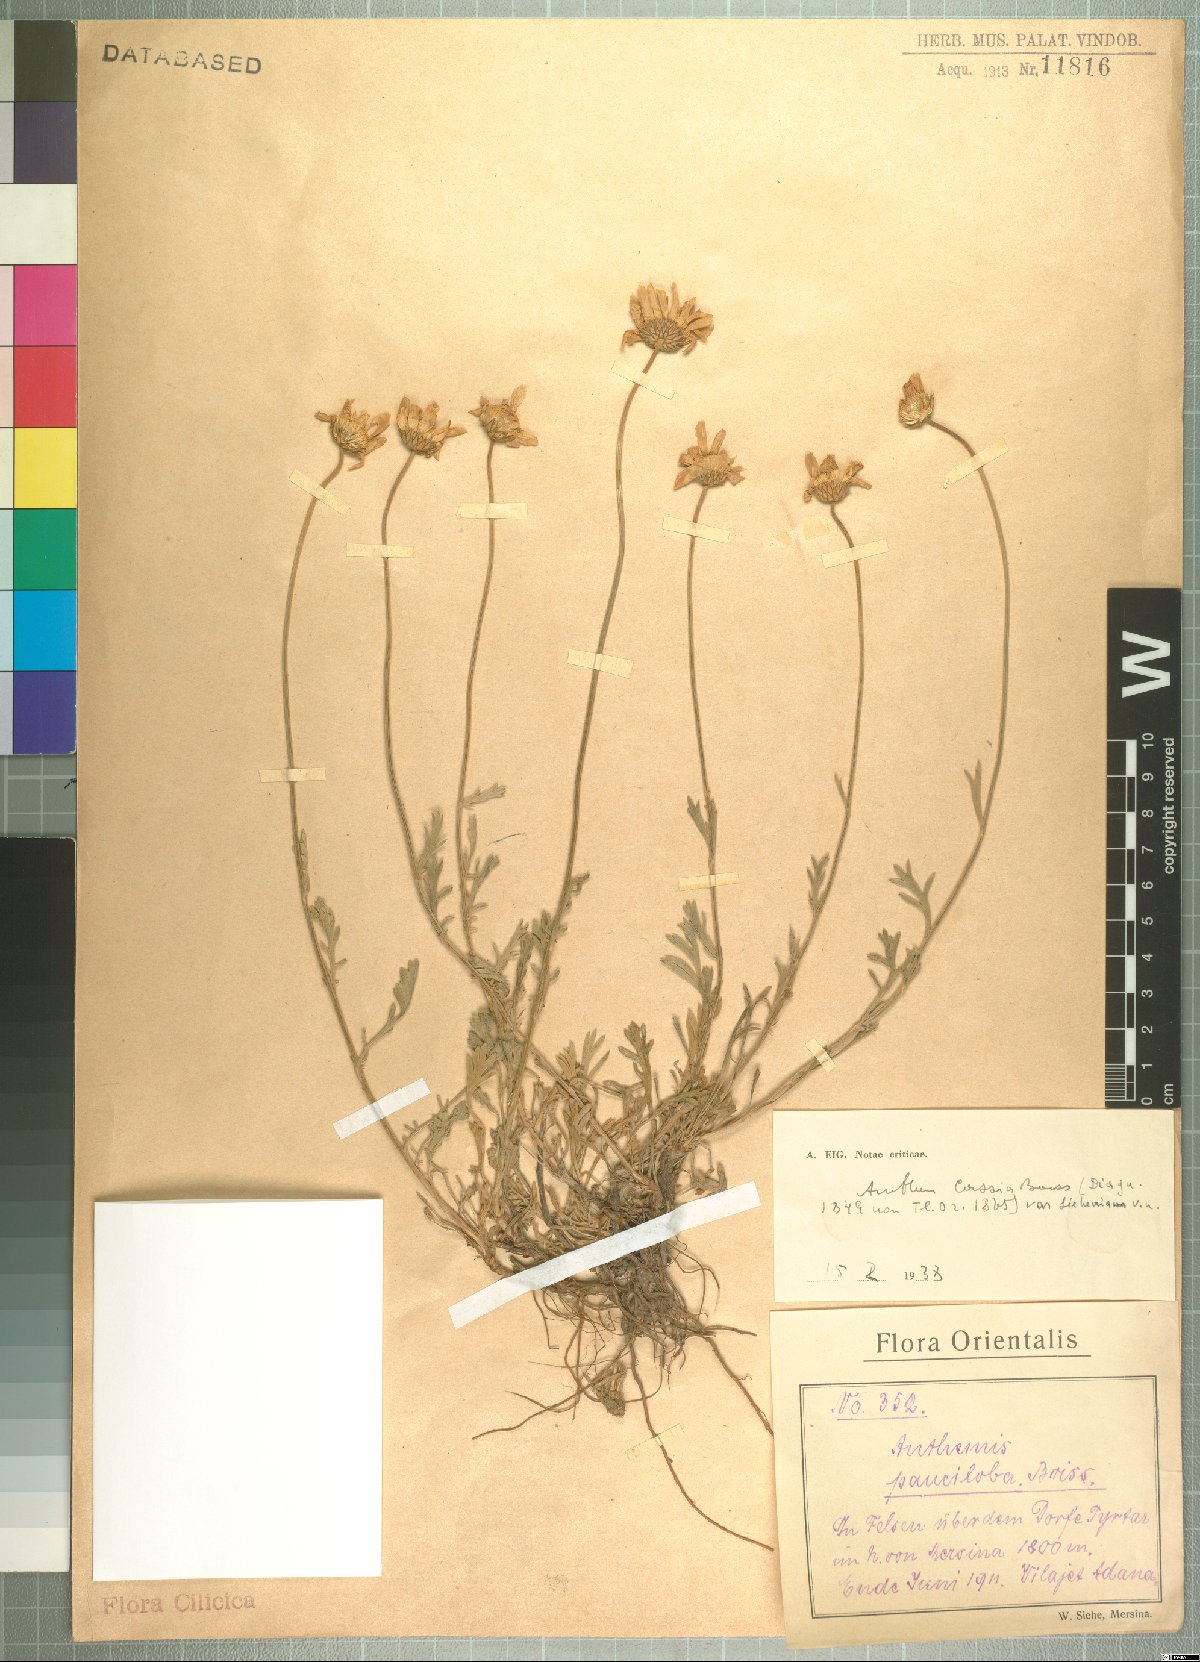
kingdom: Plantae
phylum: Tracheophyta
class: Magnoliopsida
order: Asterales
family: Asteraceae
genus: Anthemis
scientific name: Anthemis pauciloba
